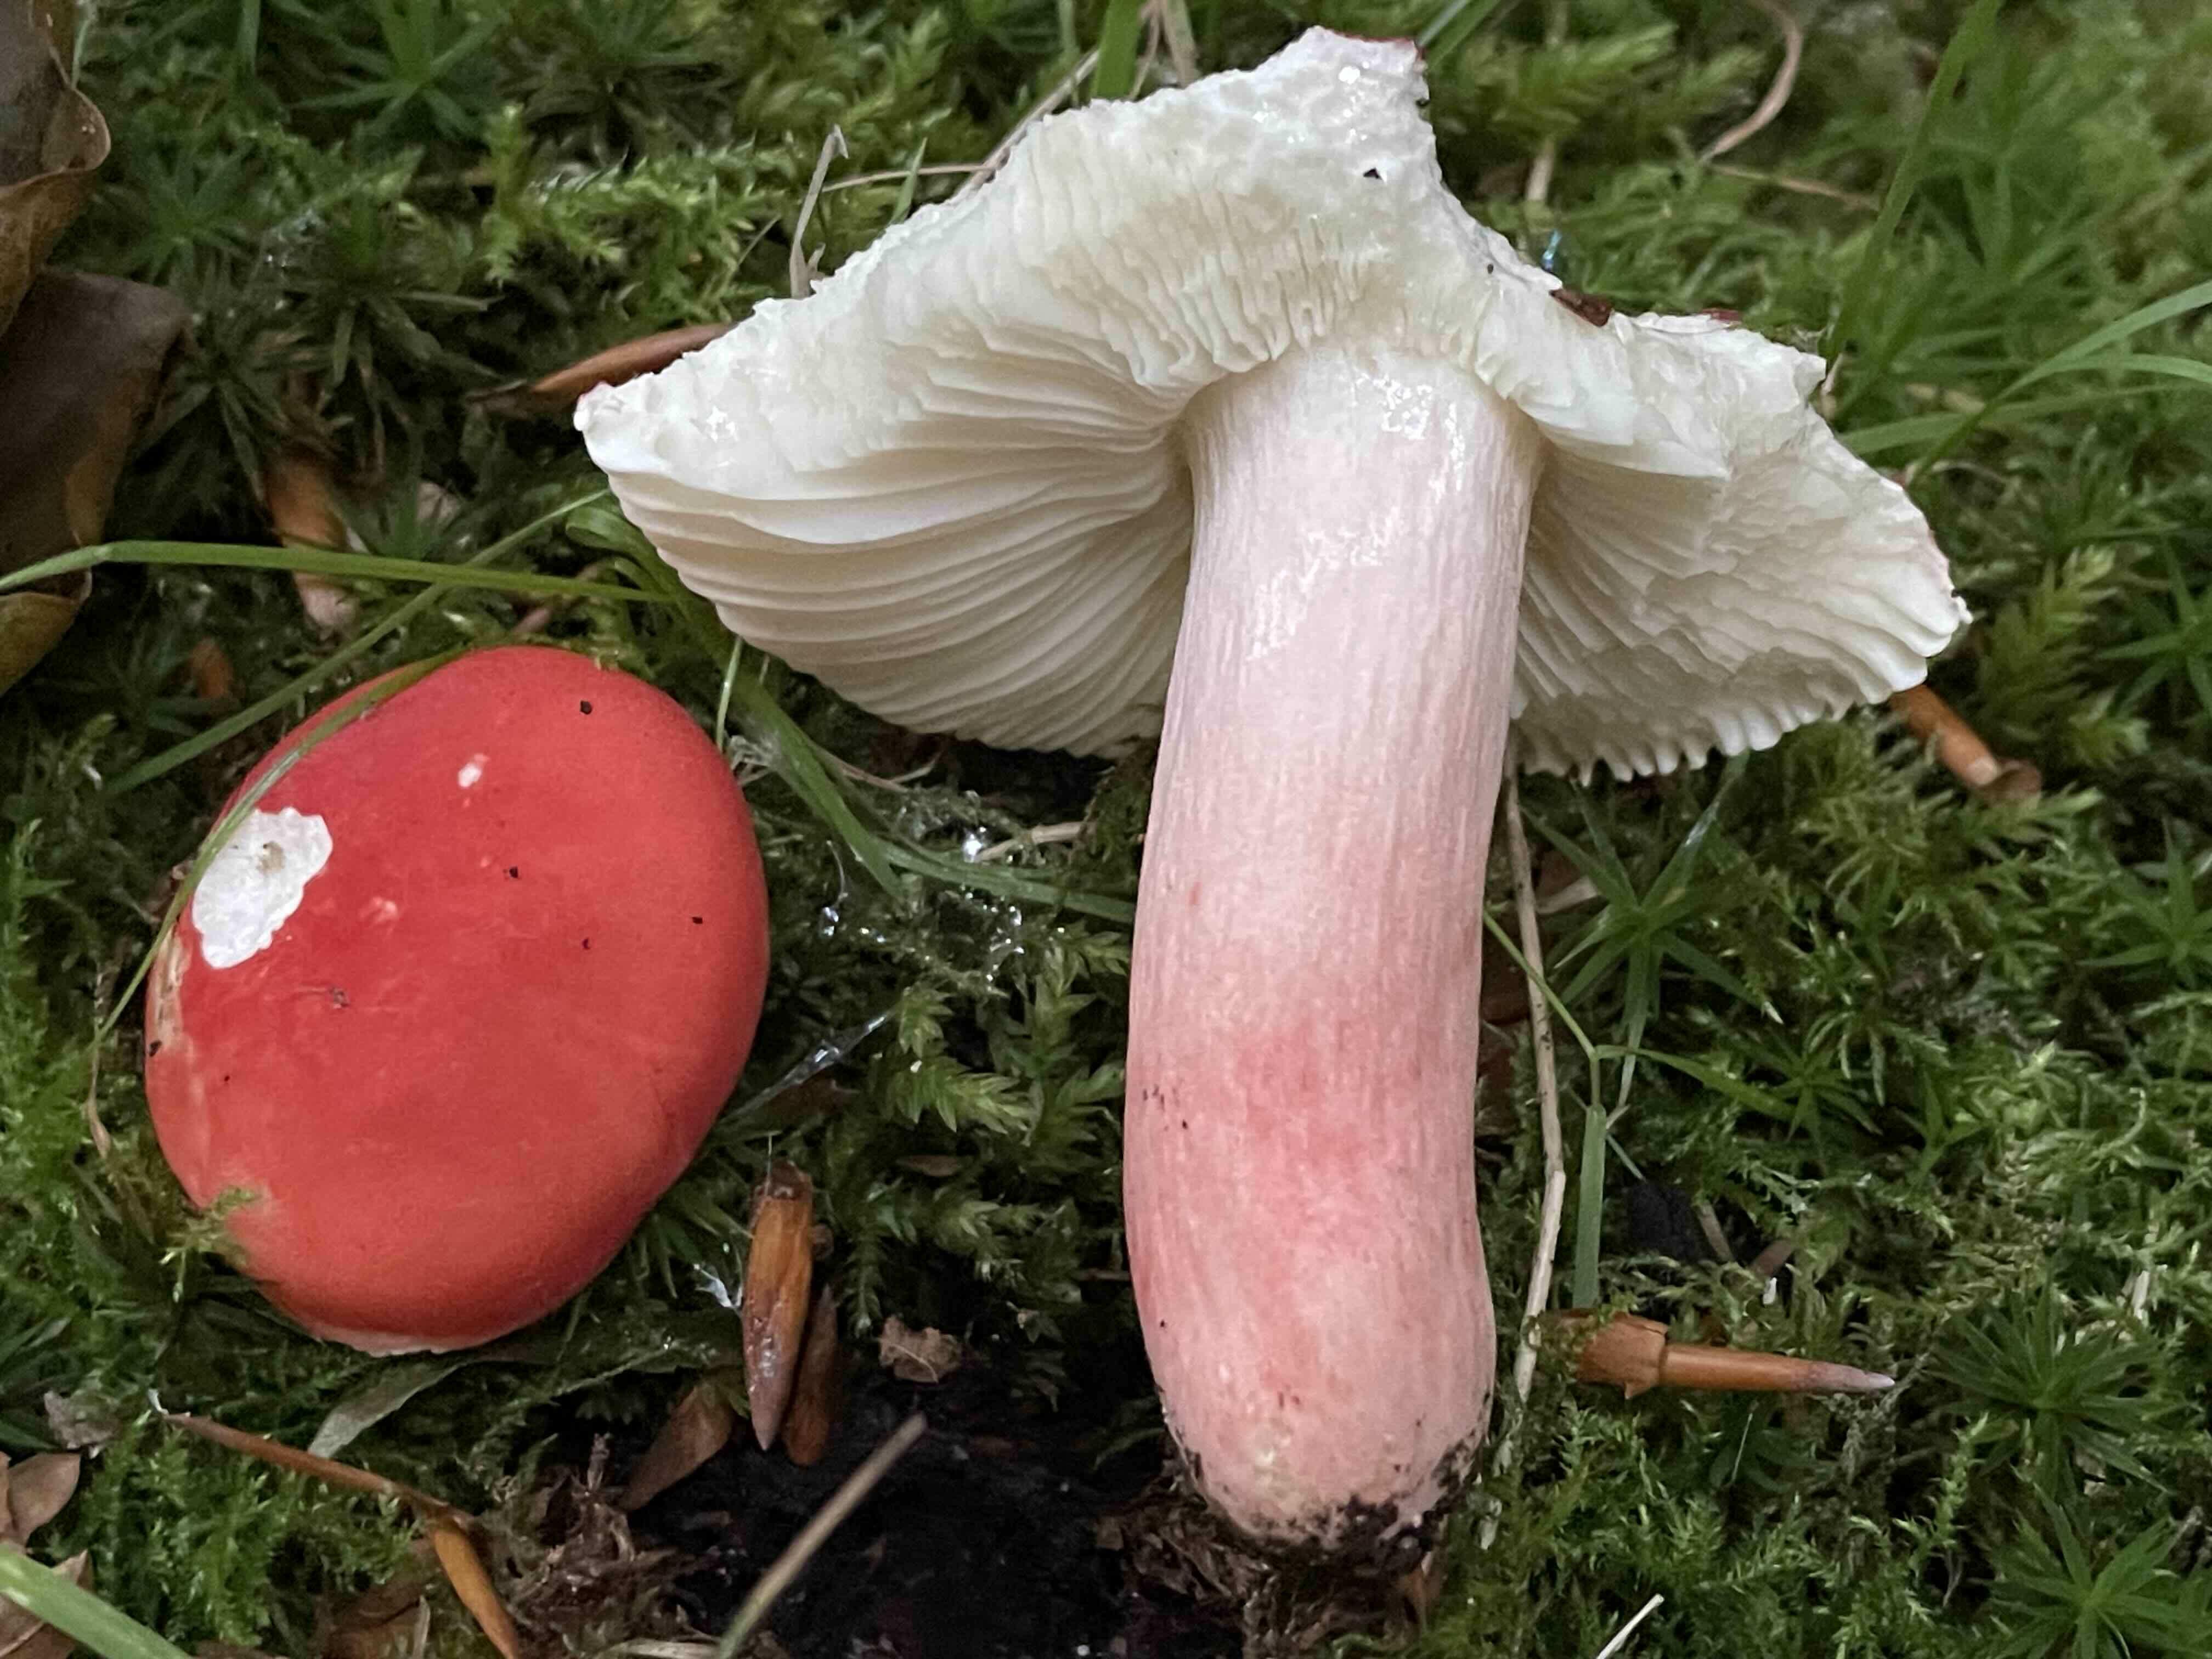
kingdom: Fungi
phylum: Basidiomycota
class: Agaricomycetes
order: Russulales
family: Russulaceae
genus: Russula
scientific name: Russula rosea
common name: fastkødet skørhat
